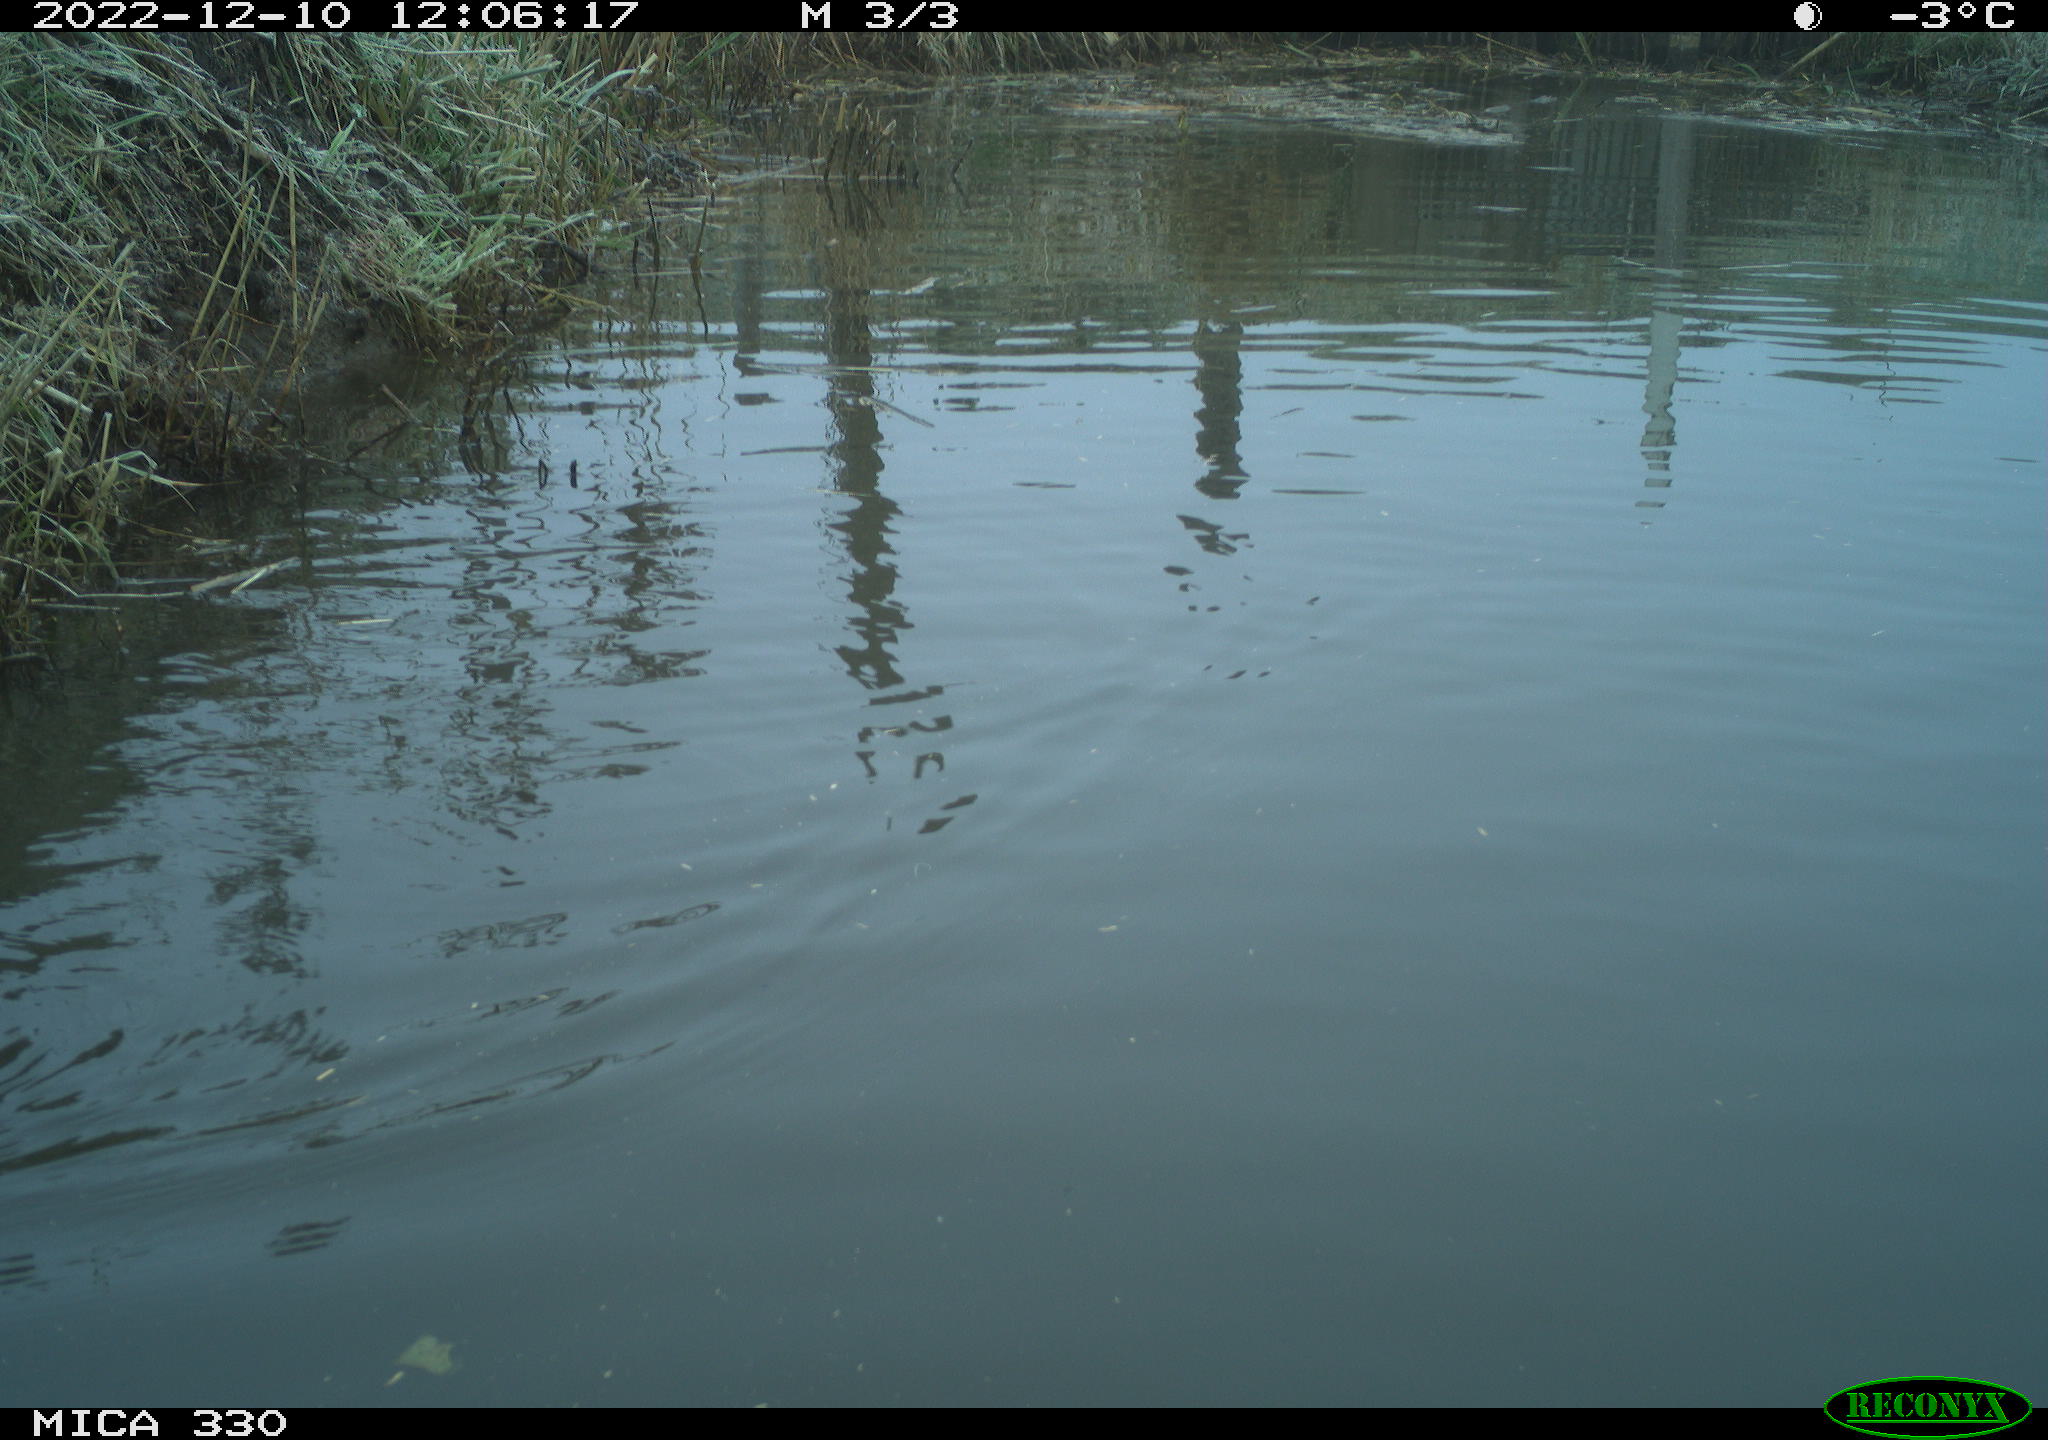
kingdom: Animalia
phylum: Chordata
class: Aves
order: Anseriformes
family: Anatidae
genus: Anas
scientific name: Anas
